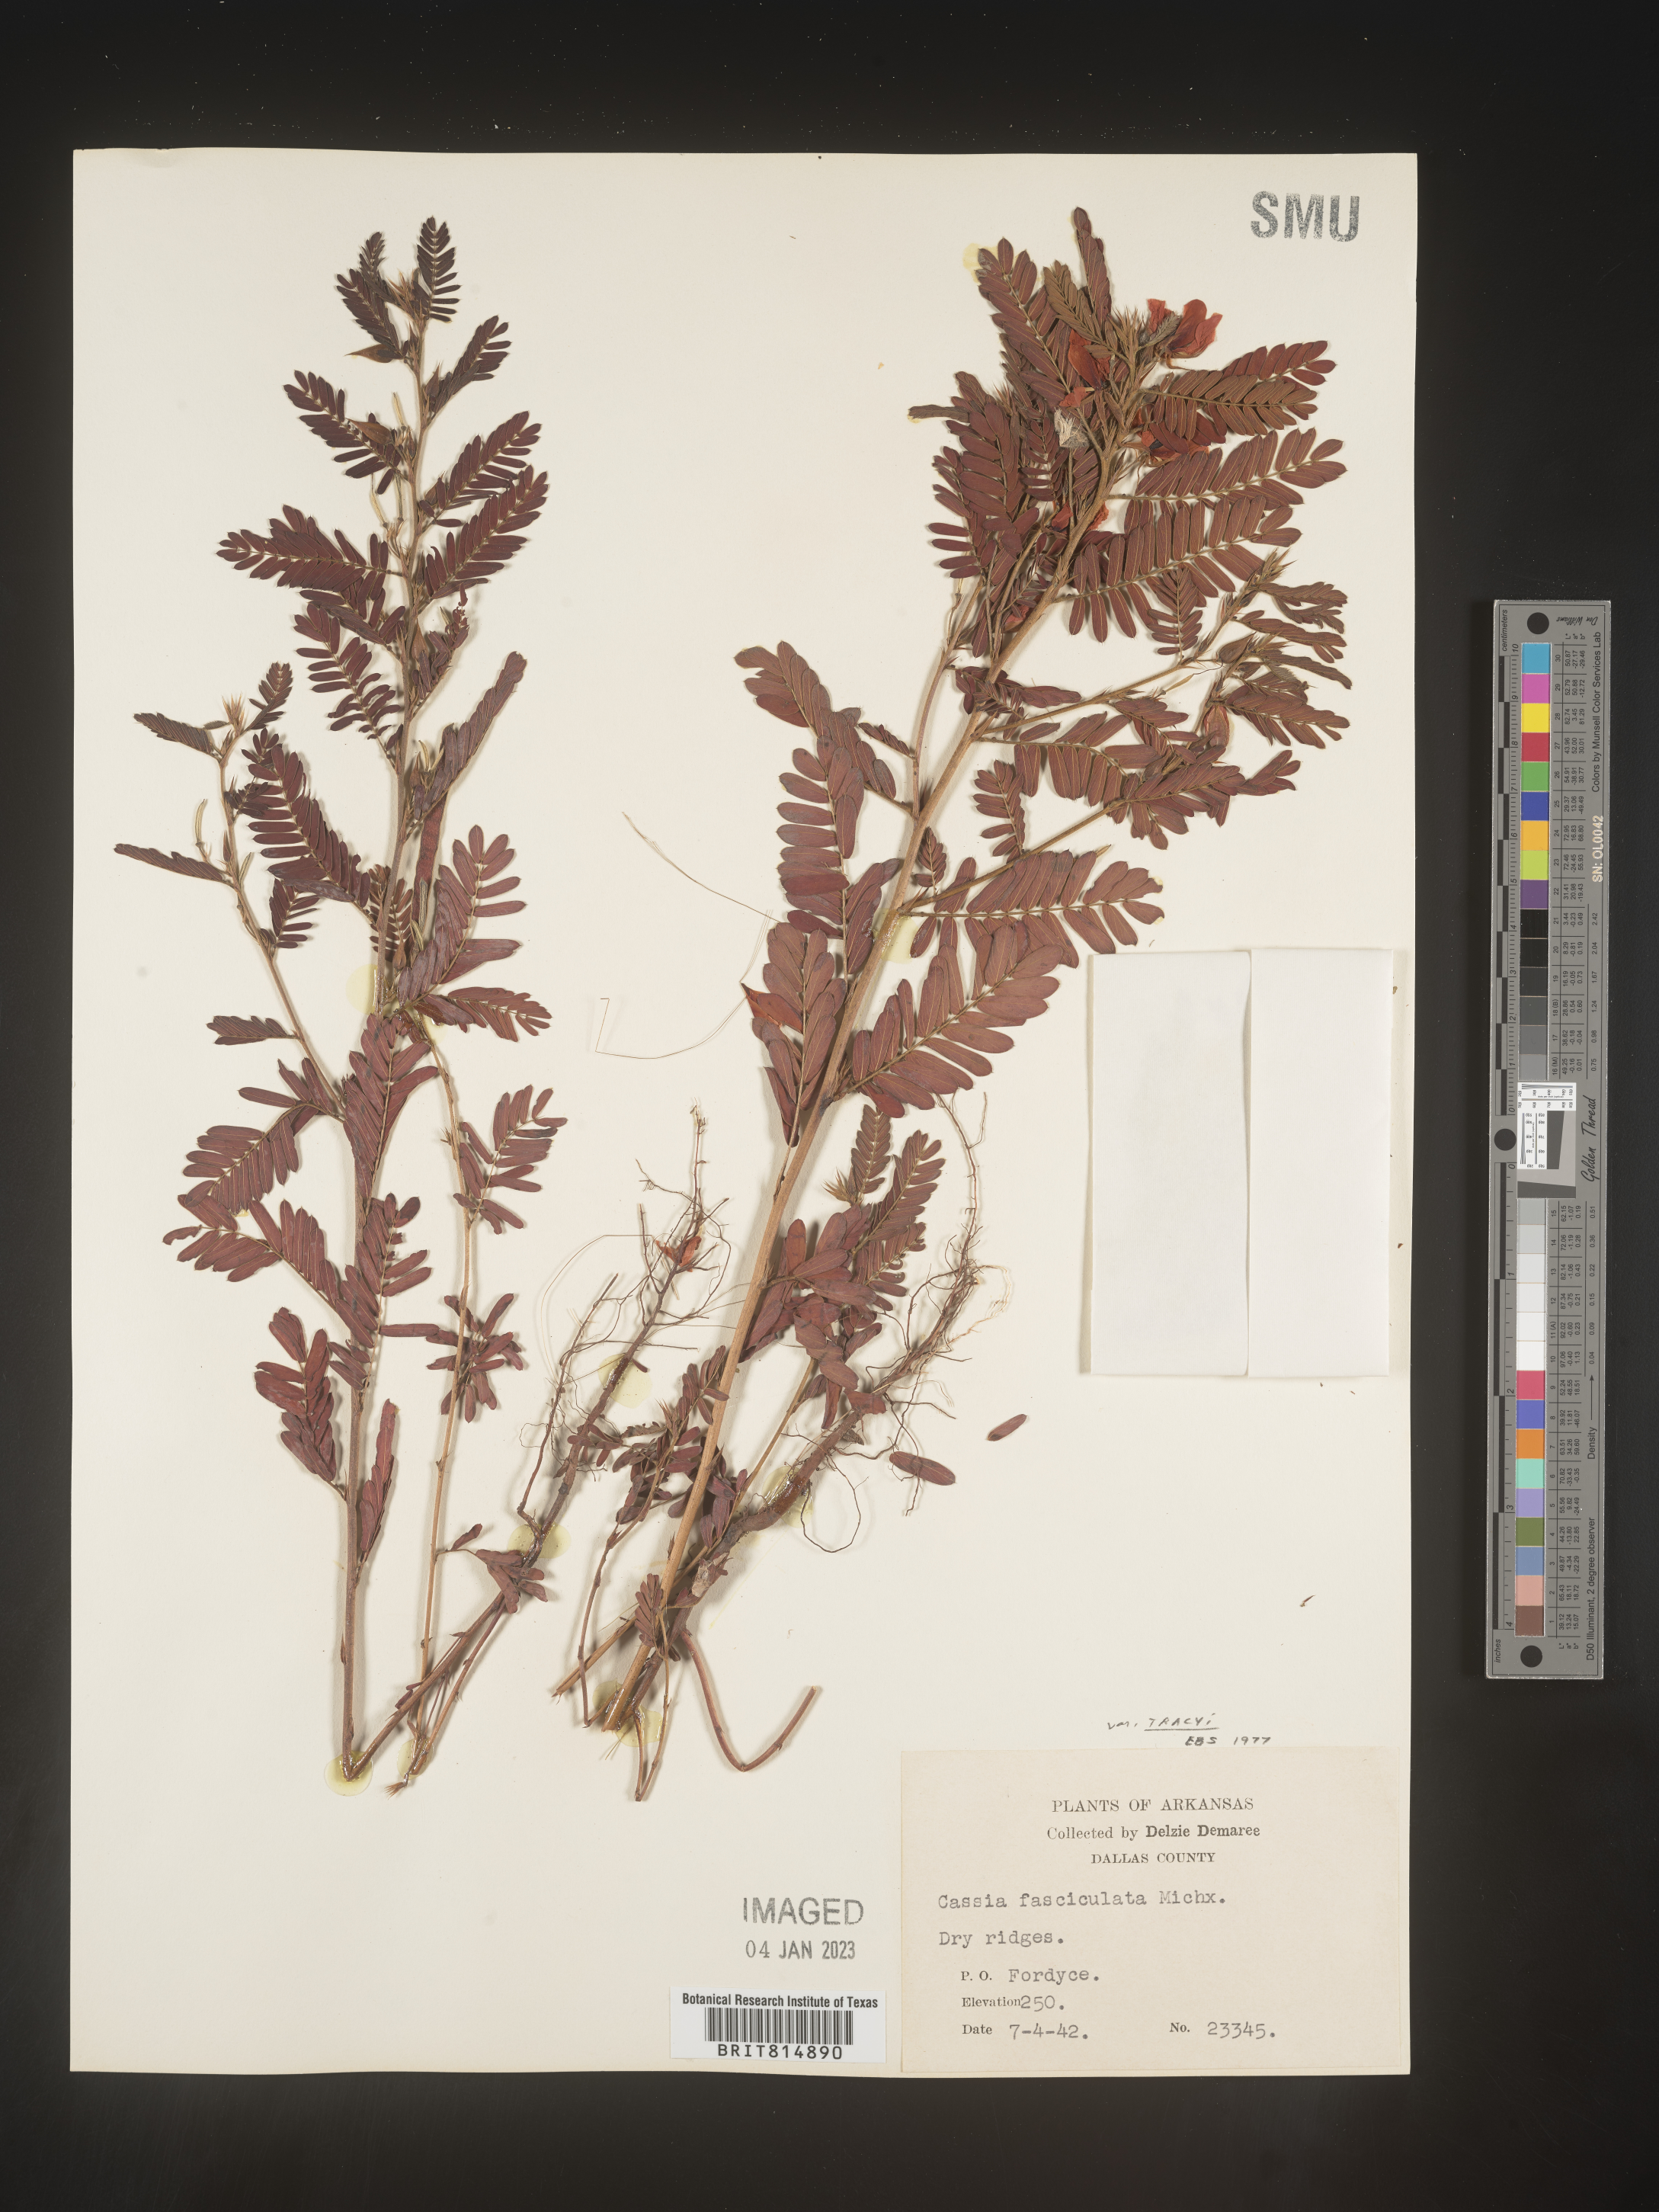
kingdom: Plantae
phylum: Tracheophyta
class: Magnoliopsida
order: Fabales
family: Fabaceae
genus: Chamaecrista
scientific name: Chamaecrista fasciculata
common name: Golden cassia
